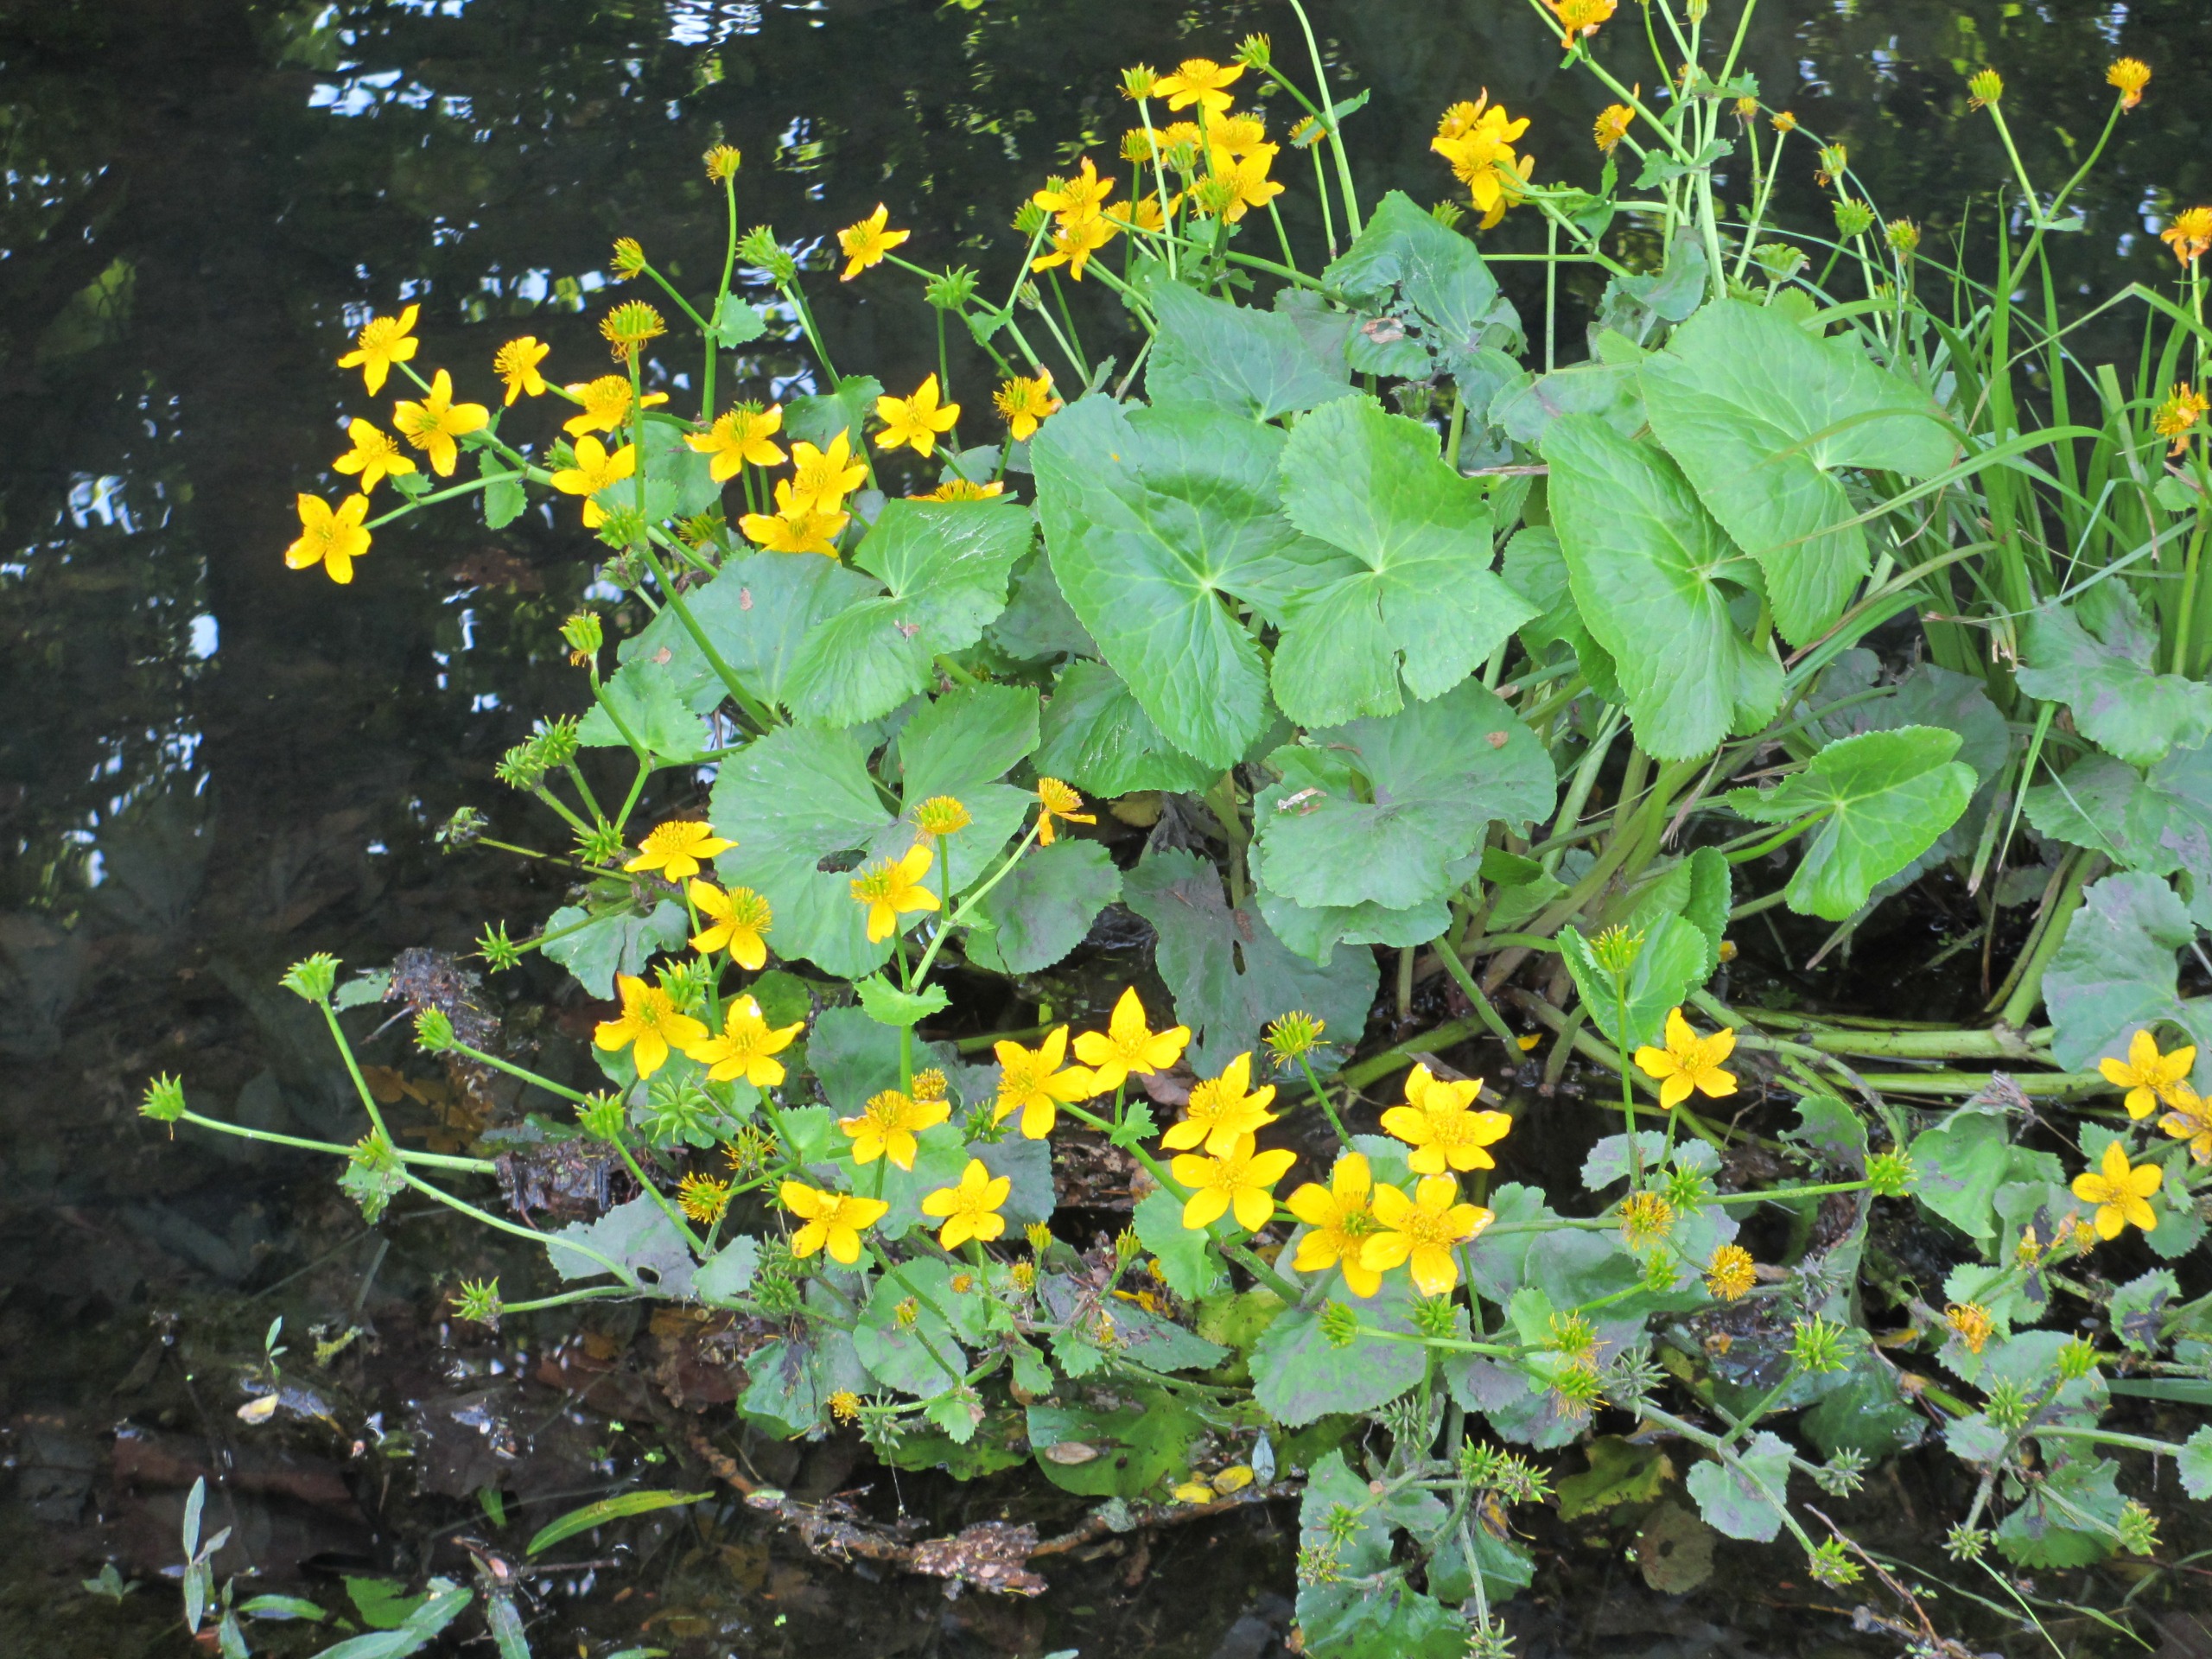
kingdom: Plantae
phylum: Tracheophyta
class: Magnoliopsida
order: Ranunculales
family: Ranunculaceae
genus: Caltha
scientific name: Caltha palustris
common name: Eng-kabbeleje
